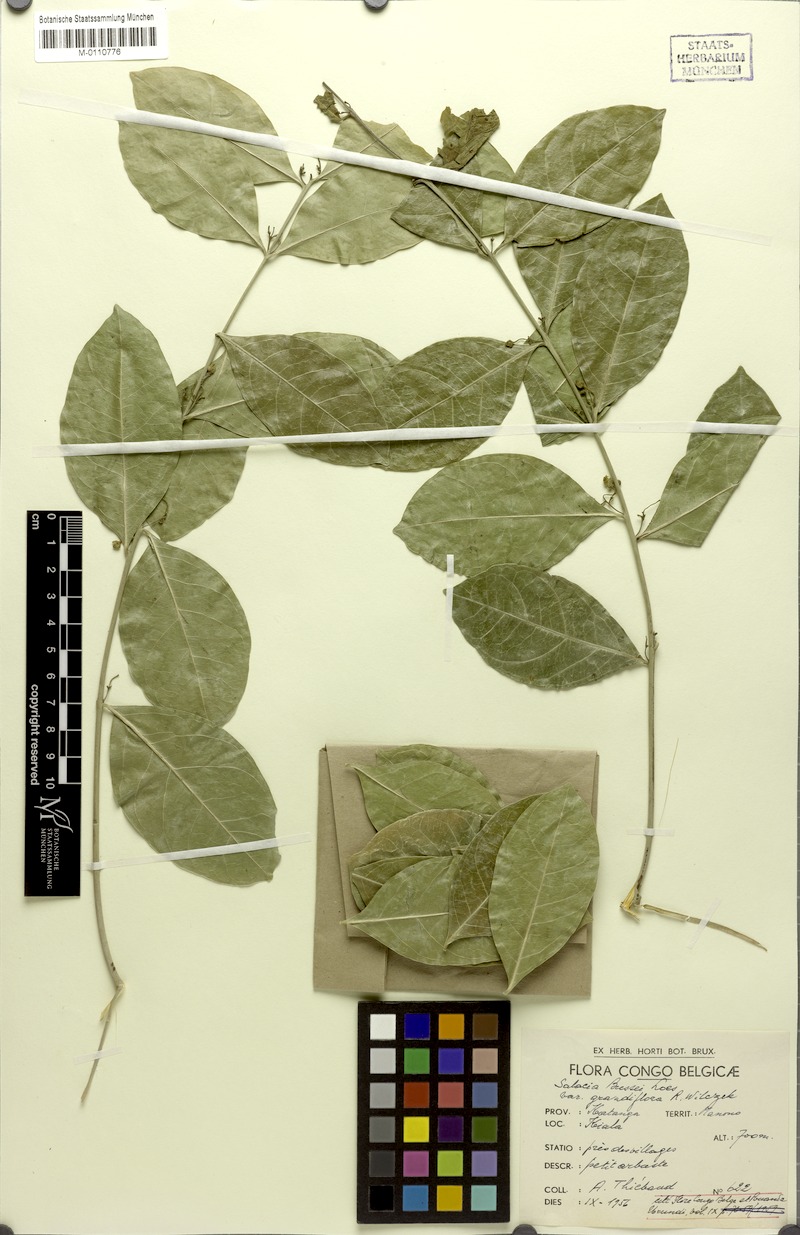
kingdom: Plantae
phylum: Tracheophyta
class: Magnoliopsida
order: Celastrales
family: Celastraceae
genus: Salacia
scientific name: Salacia bussei
